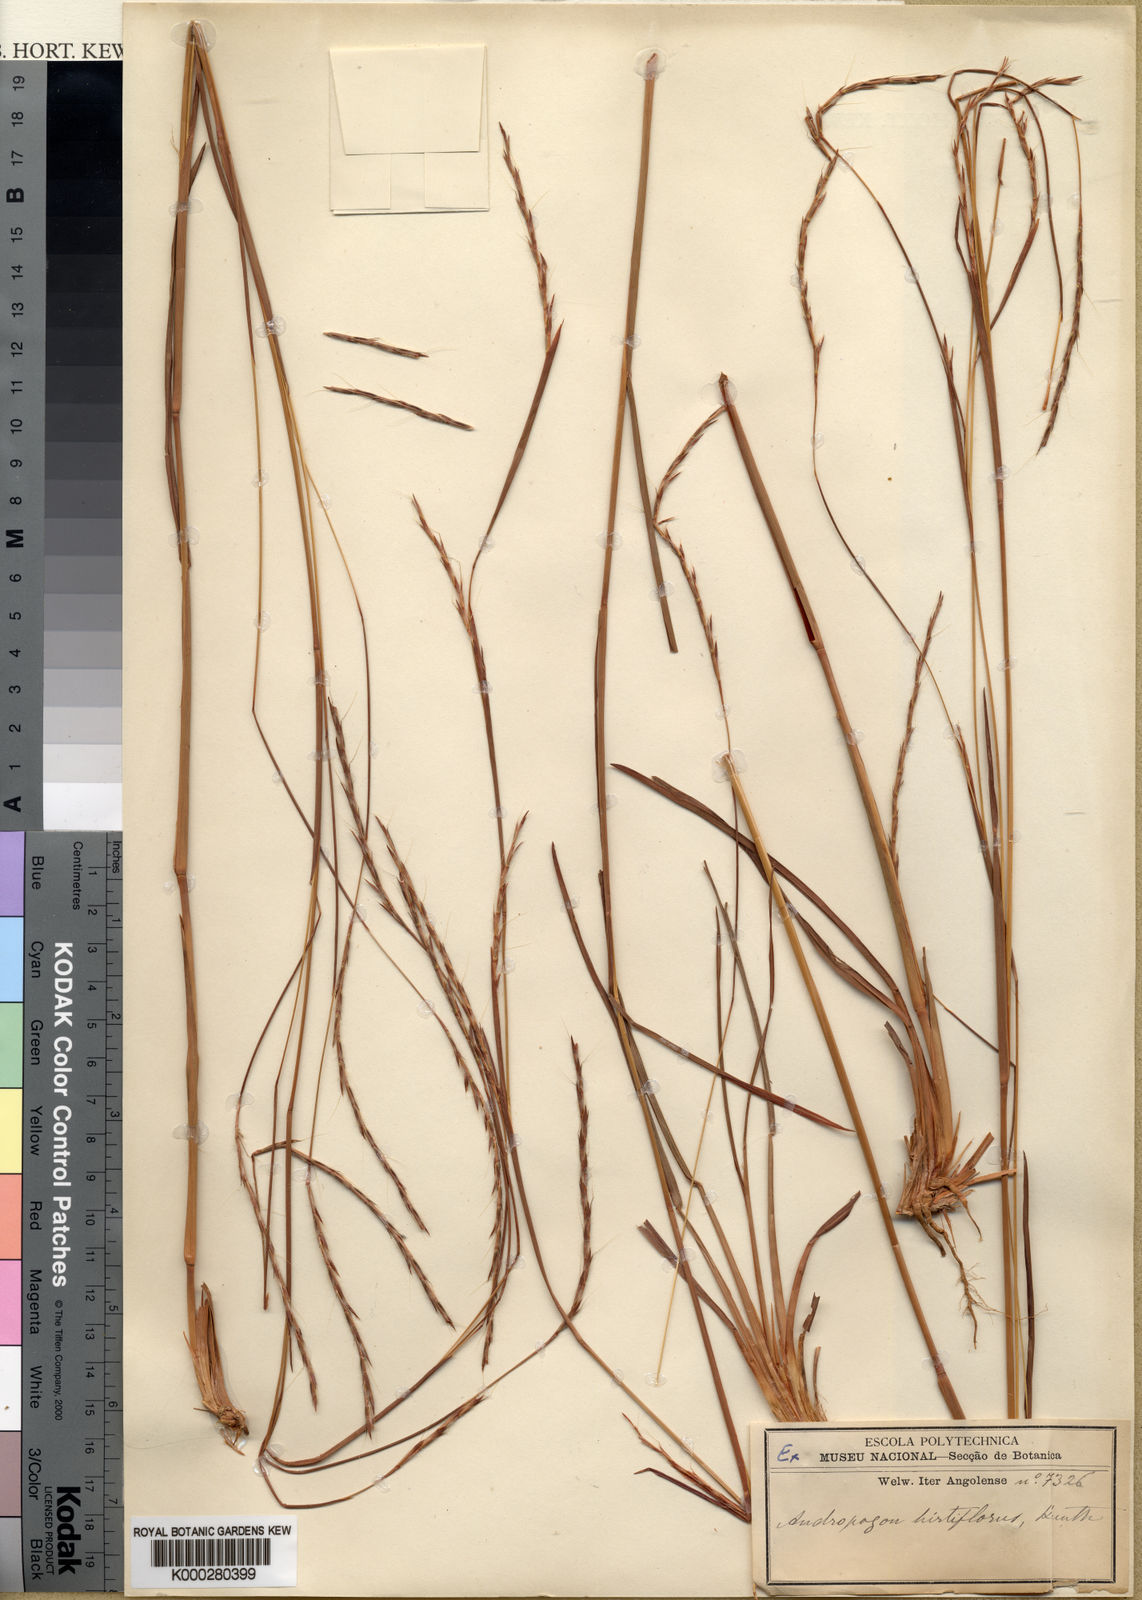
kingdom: Plantae
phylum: Tracheophyta
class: Liliopsida
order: Poales
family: Poaceae
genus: Schizachyrium
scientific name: Schizachyrium sanguineum
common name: Crimson bluestem
